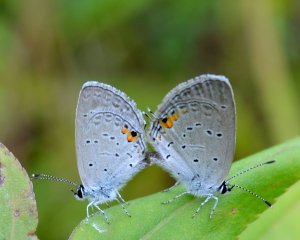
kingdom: Animalia
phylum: Arthropoda
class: Insecta
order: Lepidoptera
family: Lycaenidae
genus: Elkalyce
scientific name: Elkalyce comyntas
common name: Eastern Tailed-Blue
